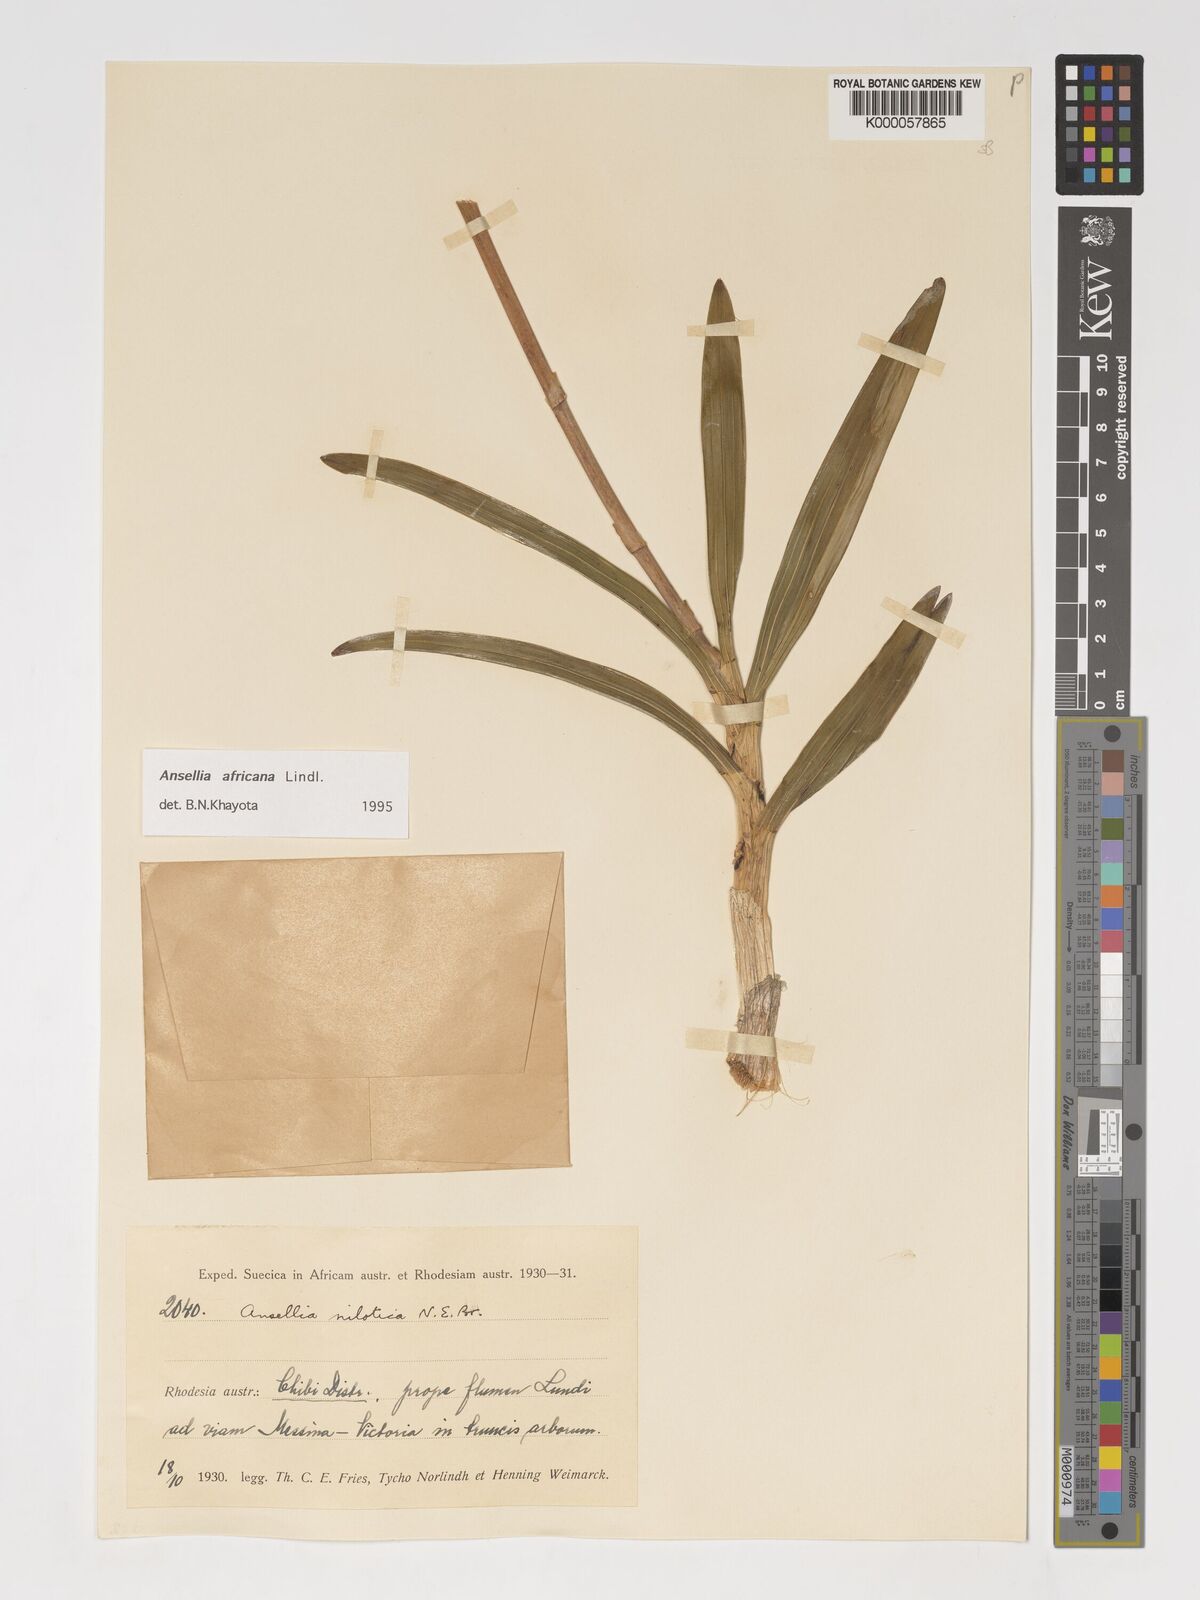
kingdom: Plantae
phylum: Tracheophyta
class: Liliopsida
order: Asparagales
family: Orchidaceae
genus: Ansellia
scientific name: Ansellia africana
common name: African ansellia
